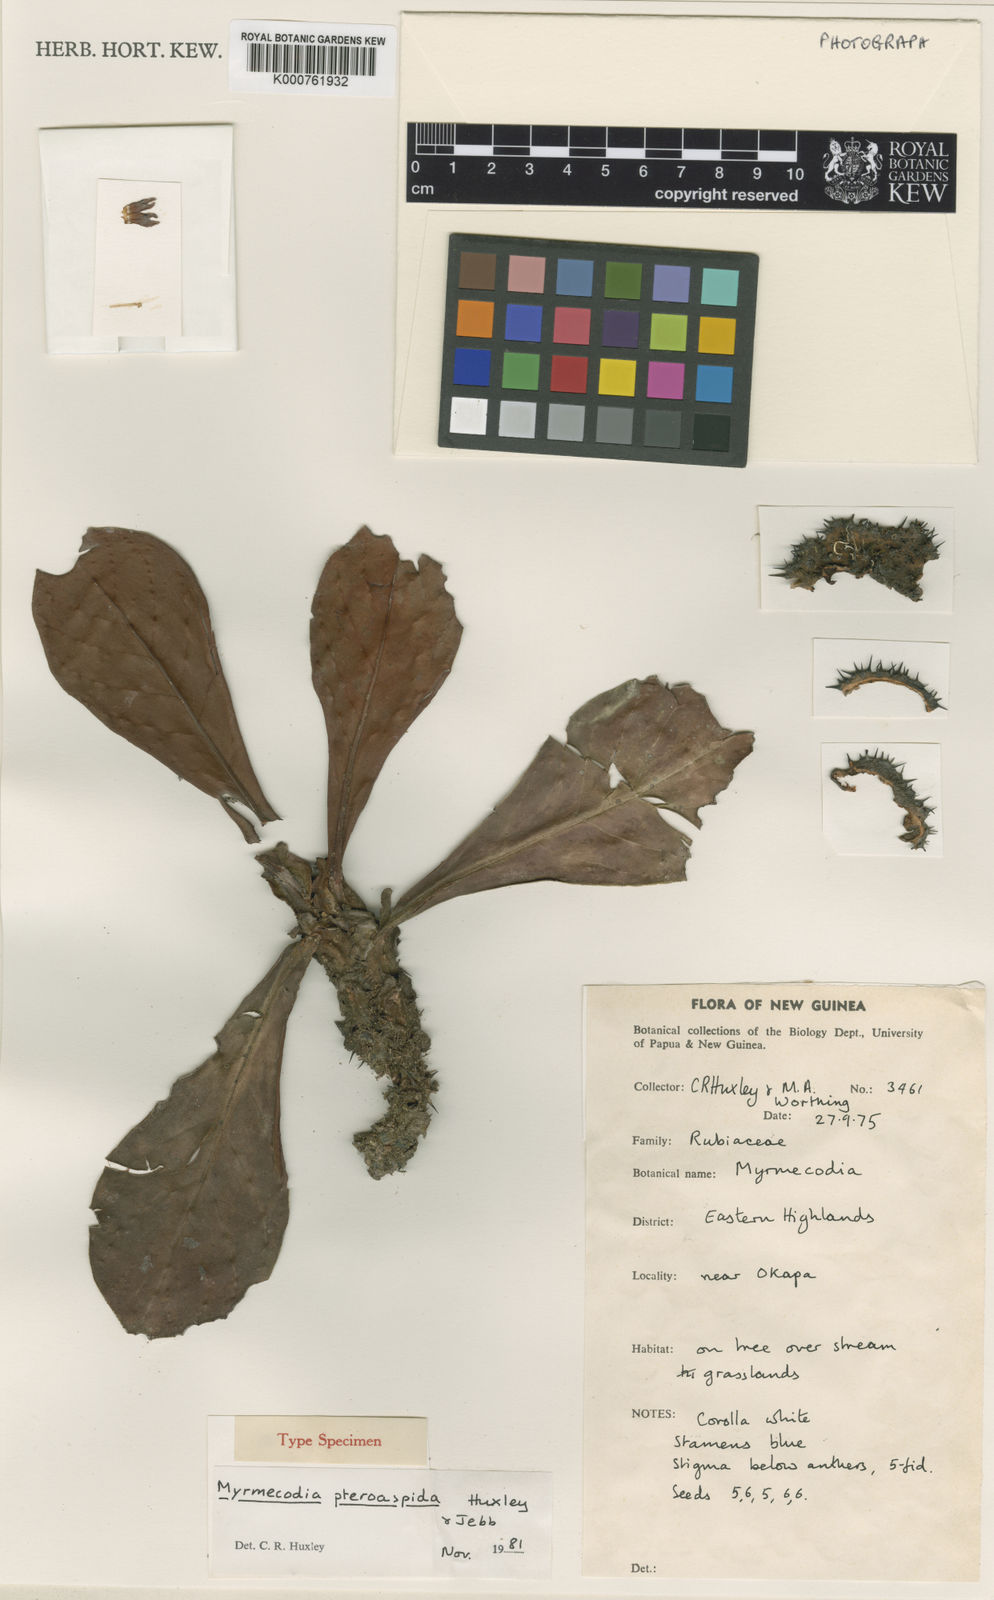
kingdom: Plantae
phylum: Tracheophyta
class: Magnoliopsida
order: Gentianales
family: Rubiaceae
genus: Myrmecodia
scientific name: Myrmecodia pteroaspida
